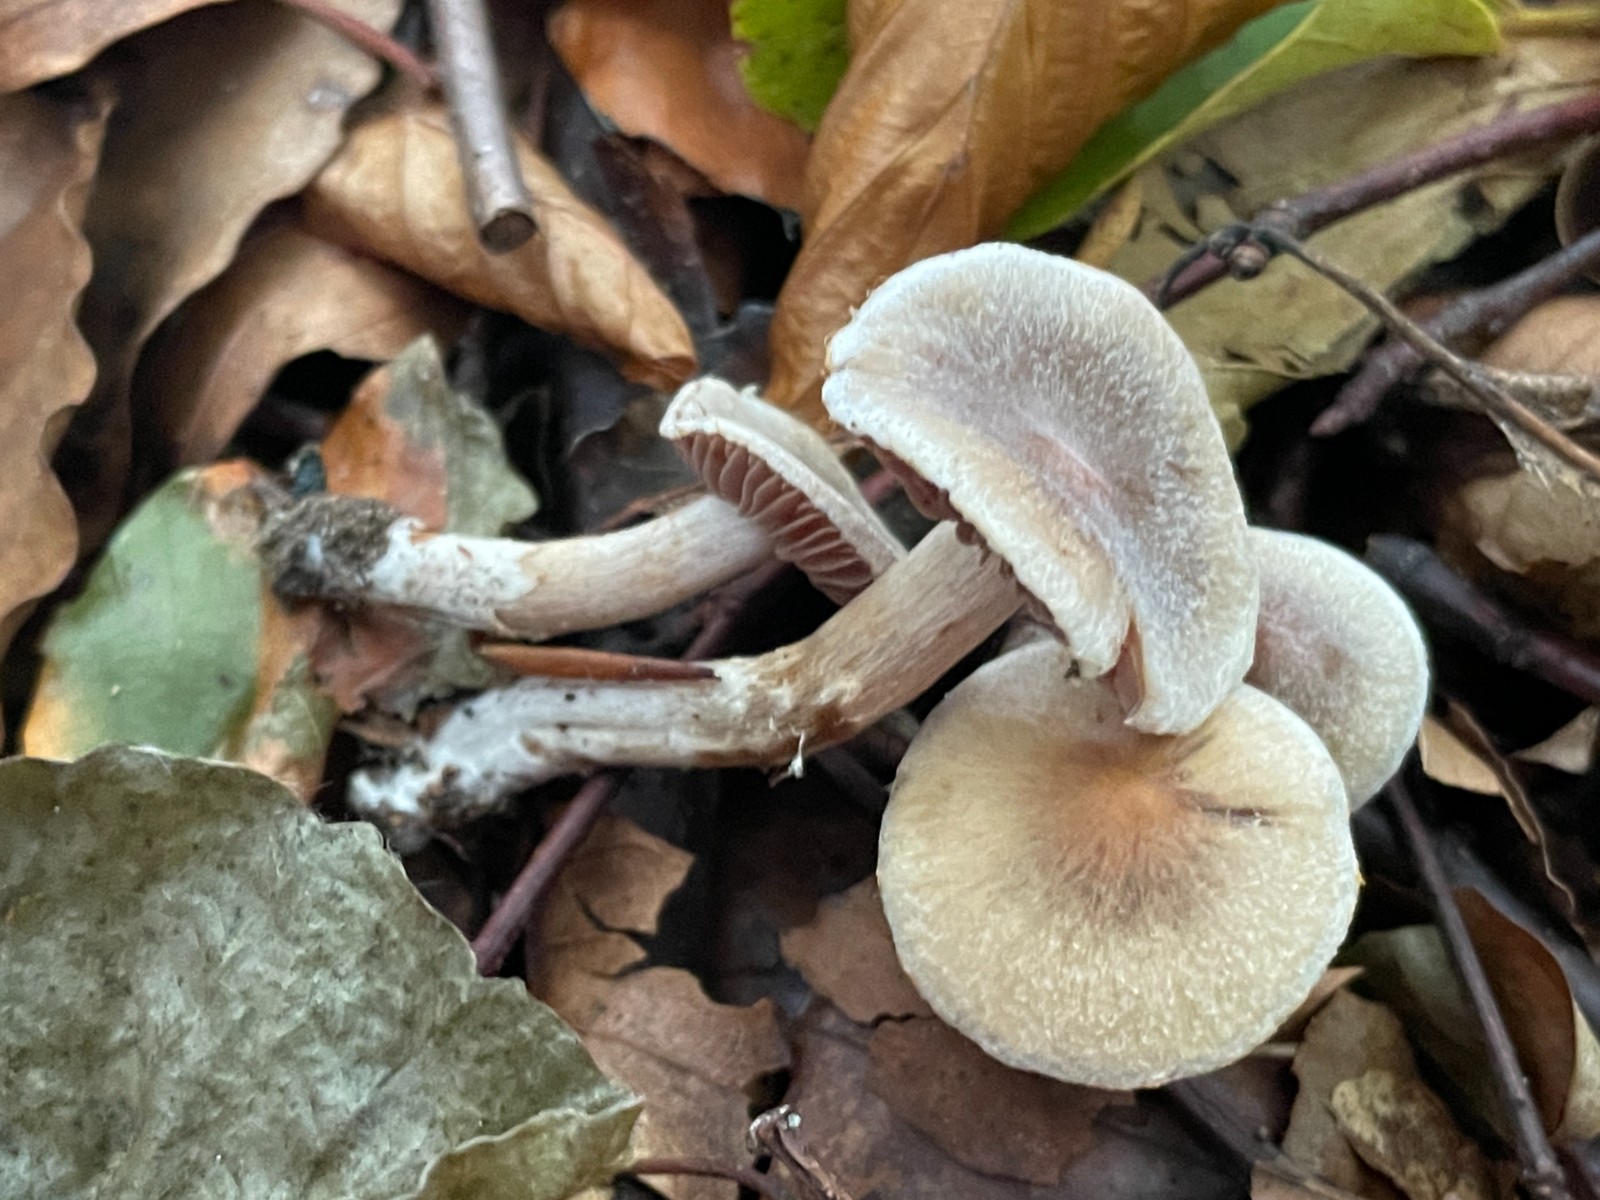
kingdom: Fungi
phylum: Basidiomycota
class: Agaricomycetes
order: Agaricales
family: Cortinariaceae
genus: Cortinarius
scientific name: Cortinarius geraniolens
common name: geranium-slørhat
